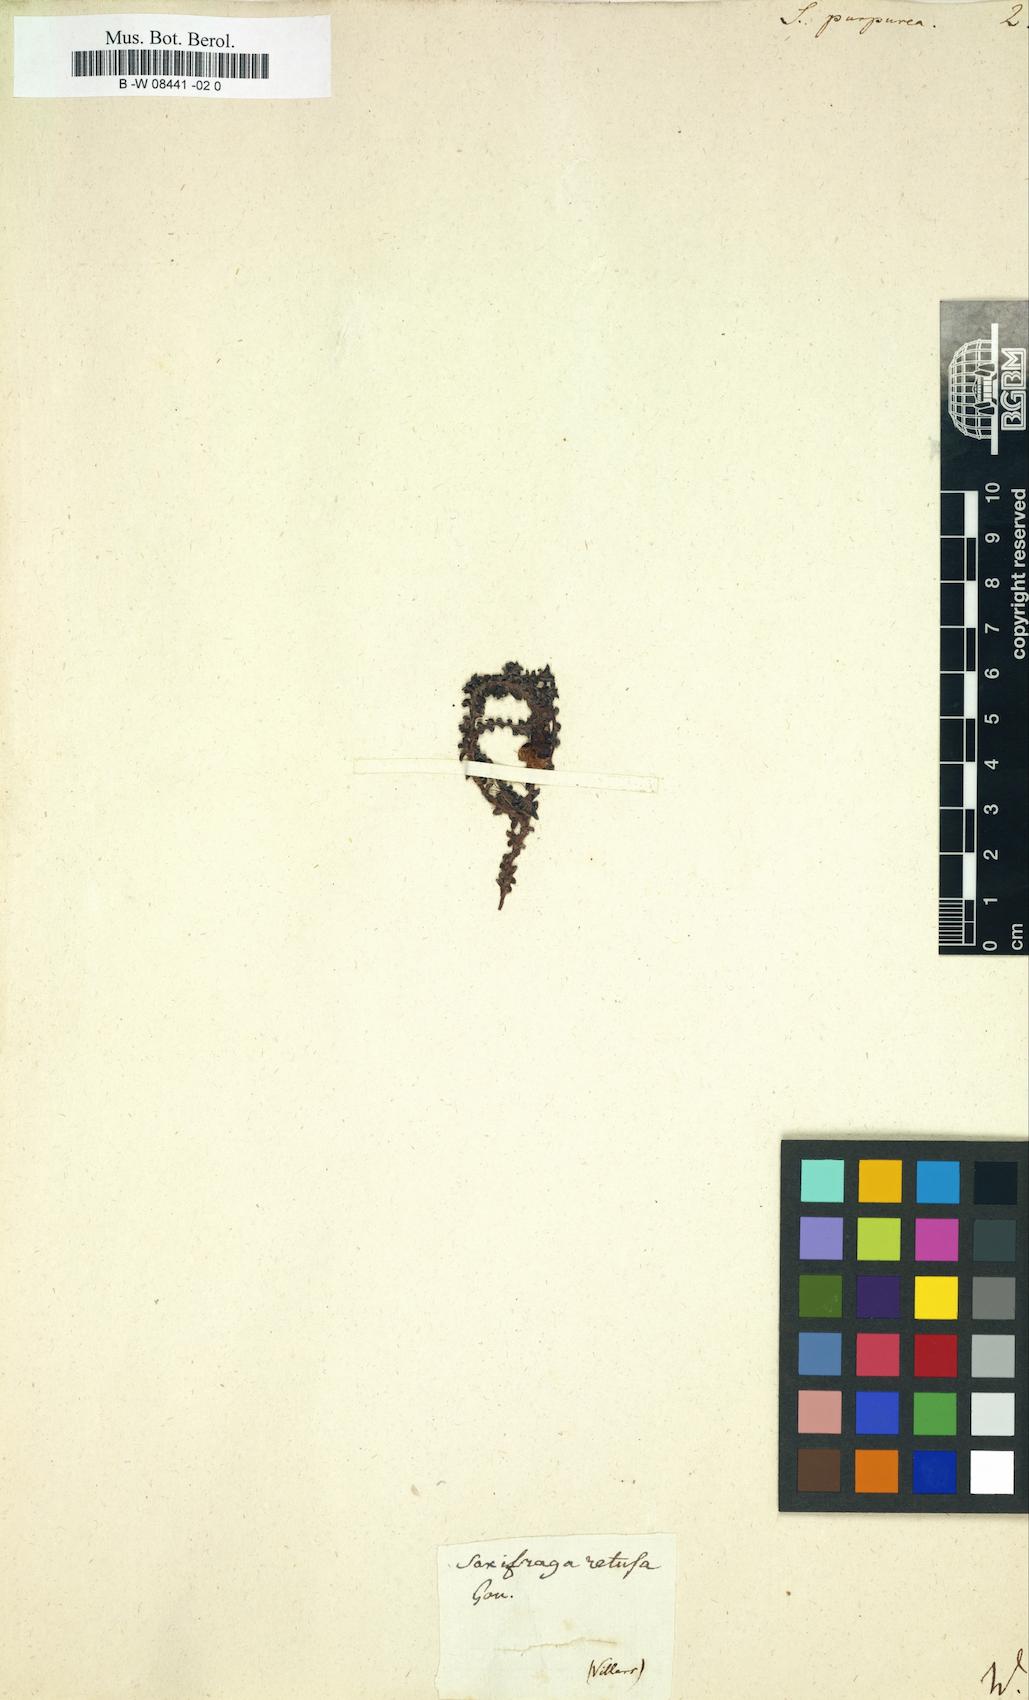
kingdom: Plantae
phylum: Tracheophyta
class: Magnoliopsida
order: Saxifragales
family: Saxifragaceae
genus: Saxifraga
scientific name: Saxifraga retusa
